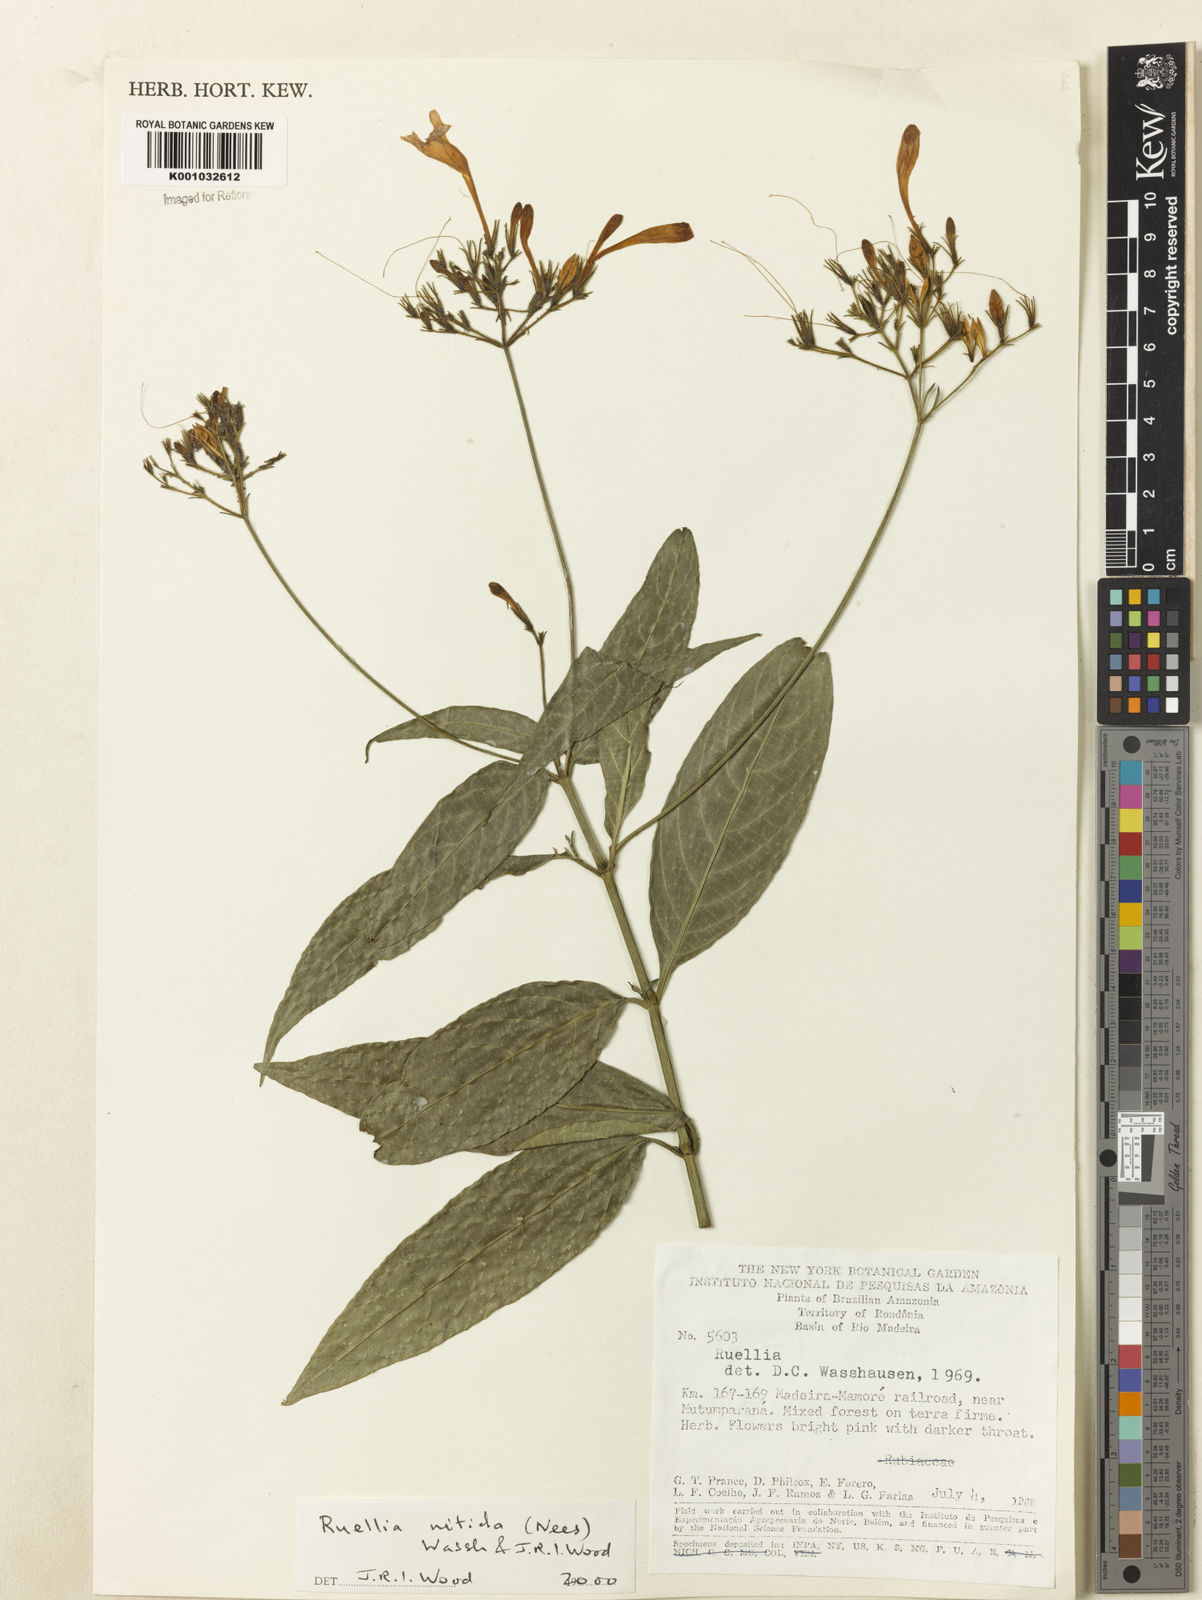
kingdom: Plantae
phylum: Tracheophyta
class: Magnoliopsida
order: Lamiales
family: Acanthaceae
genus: Ruellia
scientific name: Ruellia nitida
